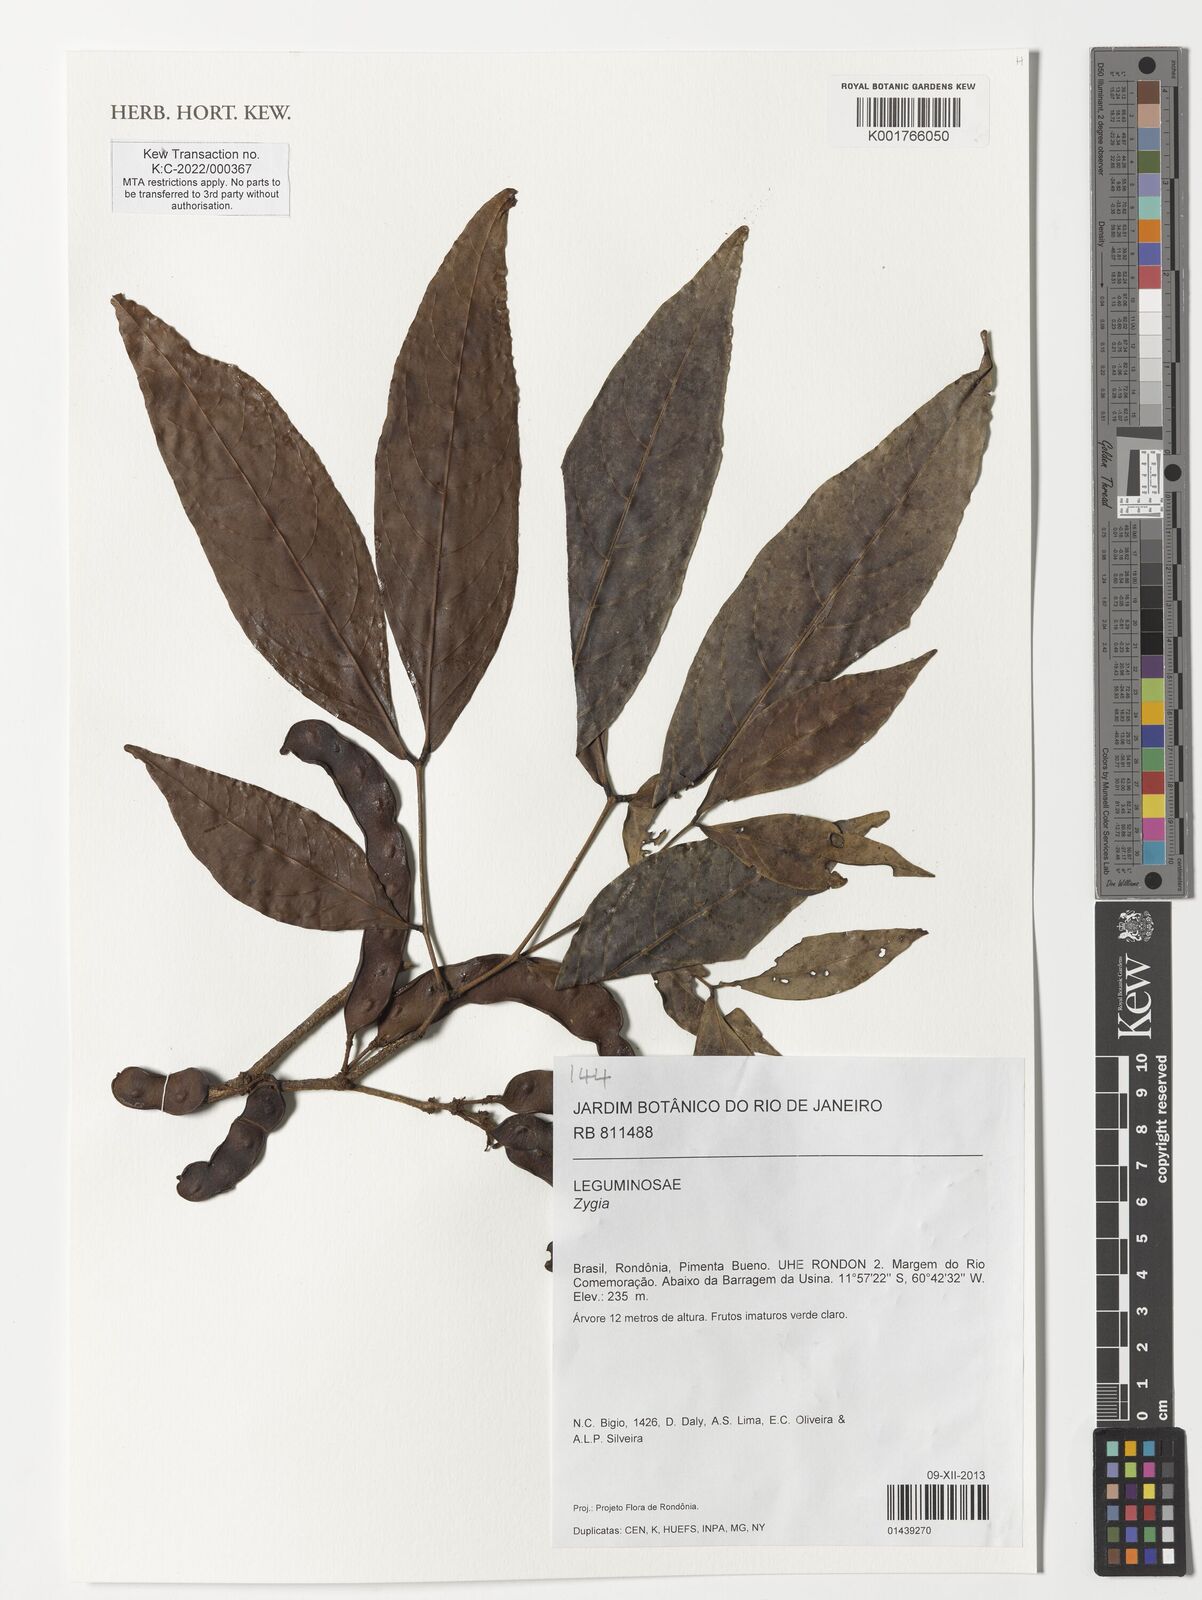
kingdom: Plantae
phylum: Tracheophyta
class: Magnoliopsida
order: Fabales
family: Fabaceae
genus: Zygia
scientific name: Zygia
